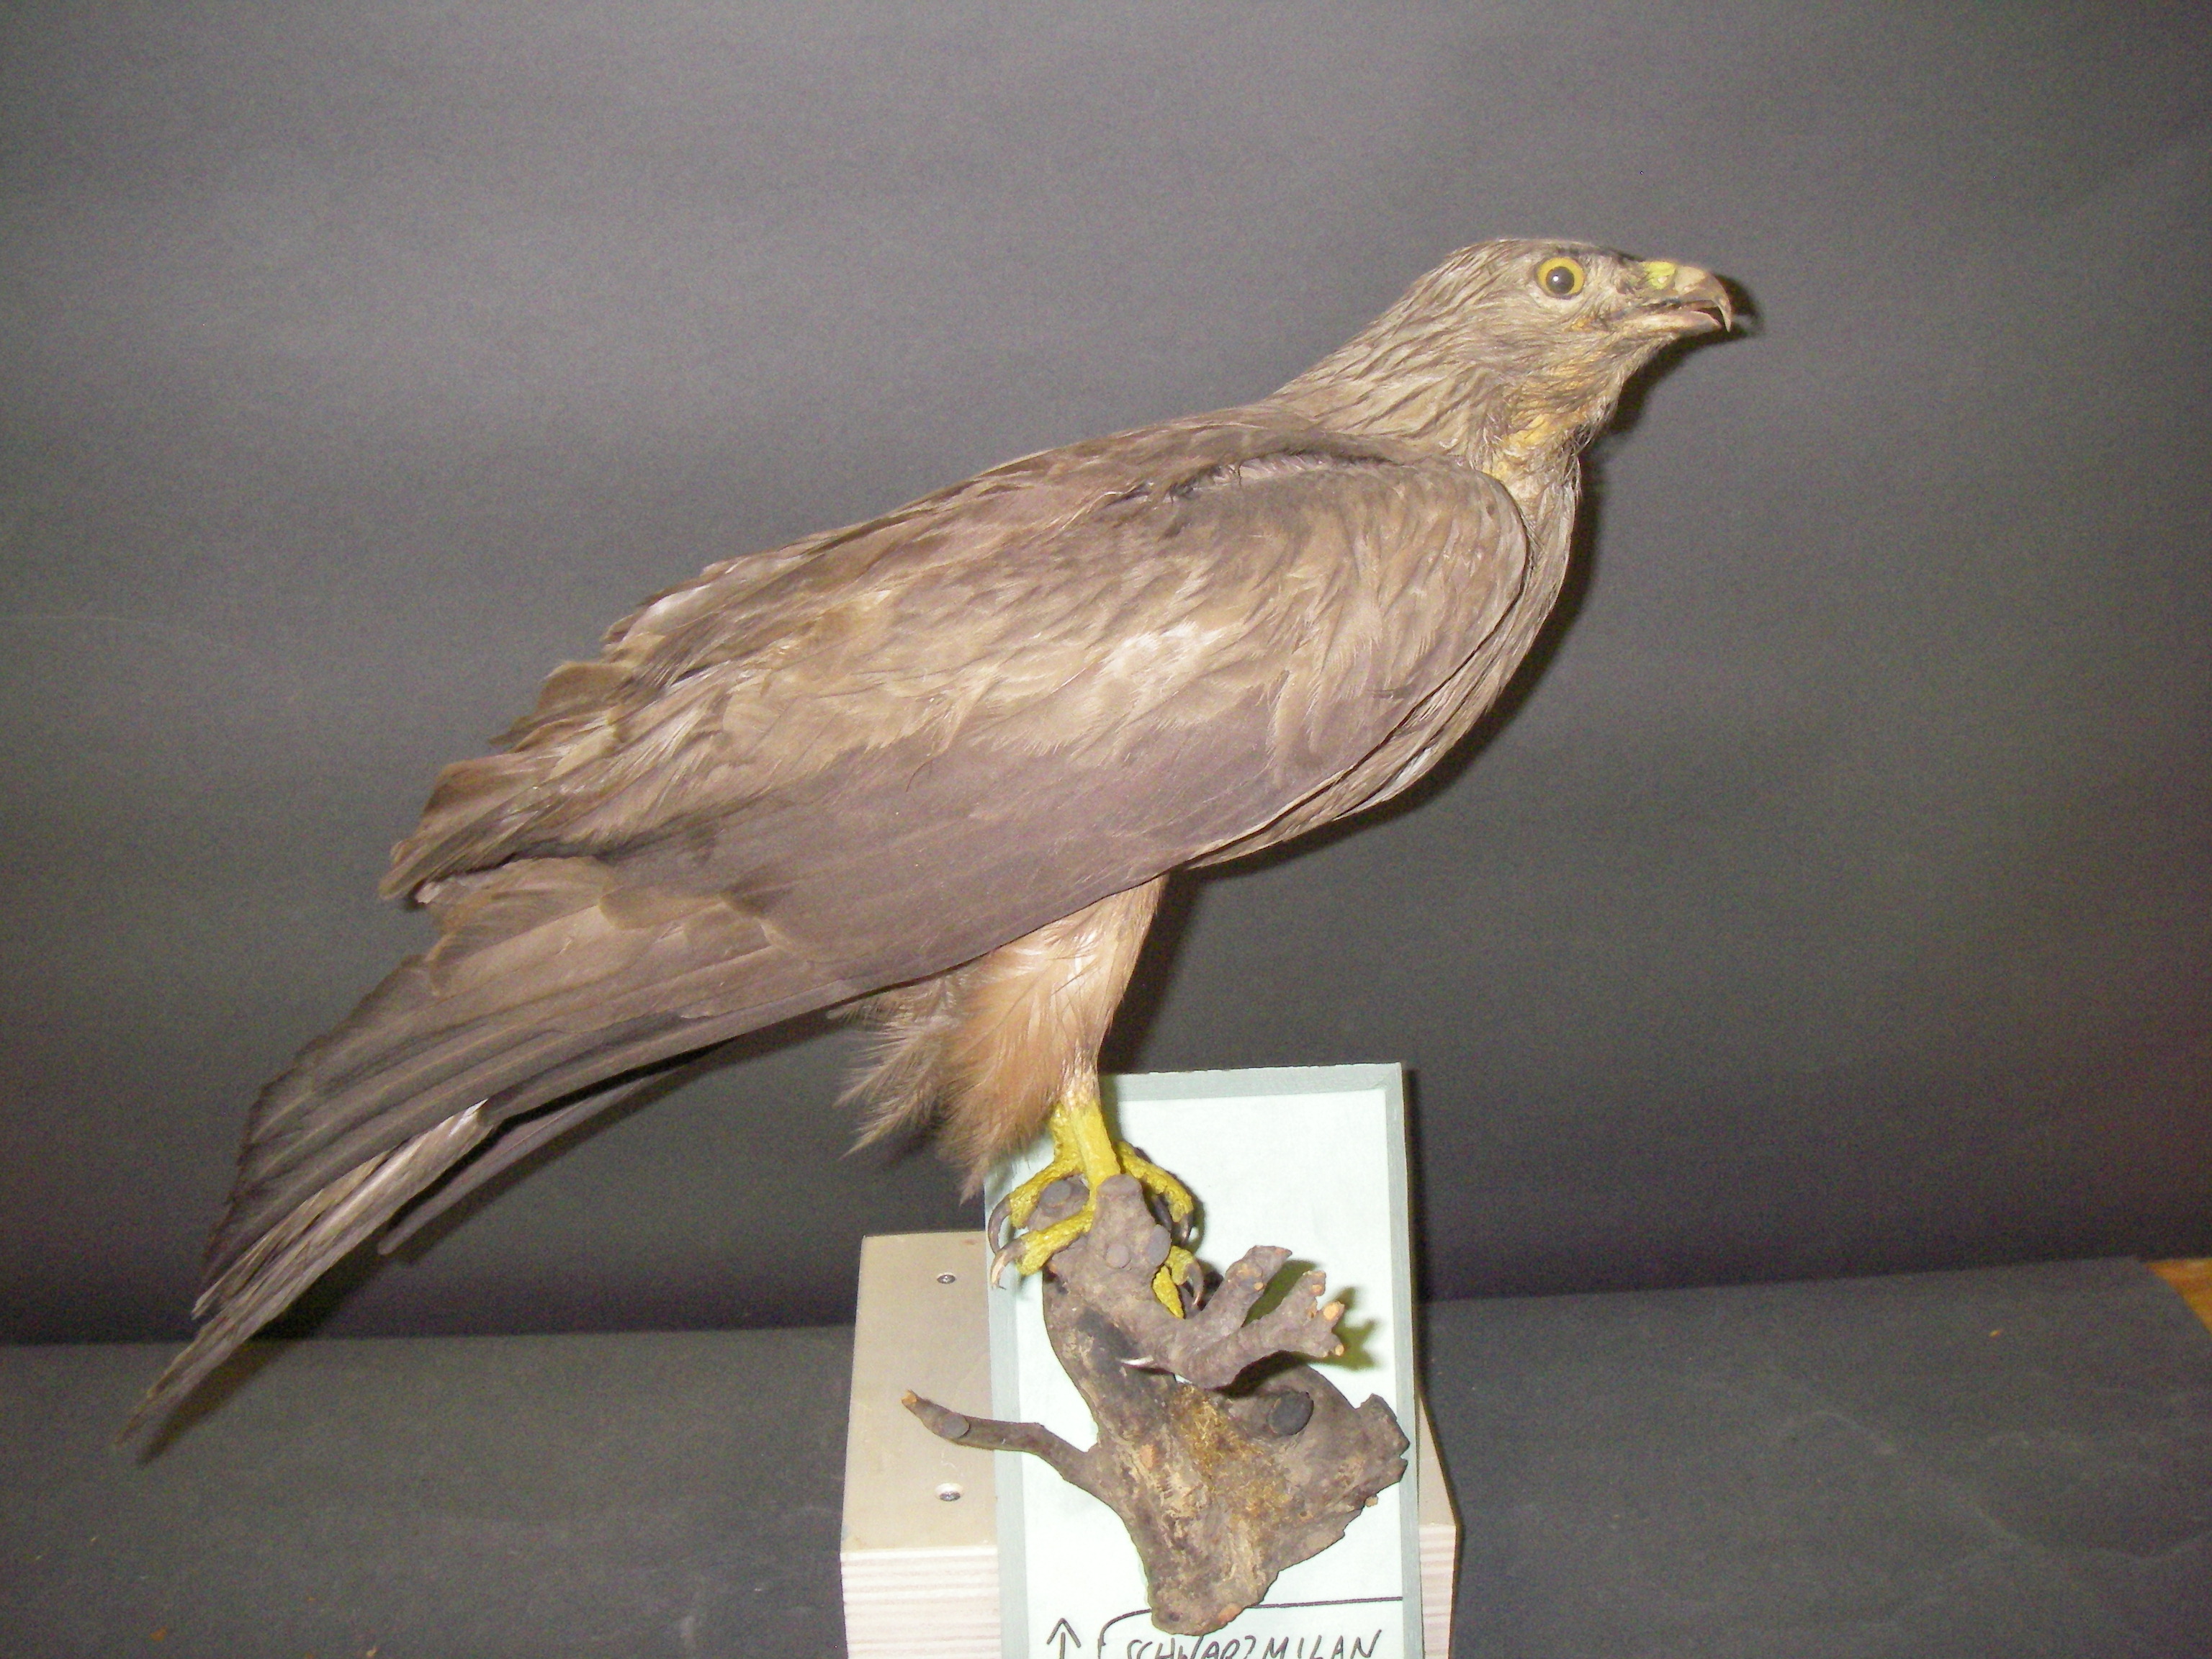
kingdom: Animalia
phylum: Chordata
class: Aves
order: Accipitriformes
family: Accipitridae
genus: Milvus
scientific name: Milvus migrans
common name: Black kite
